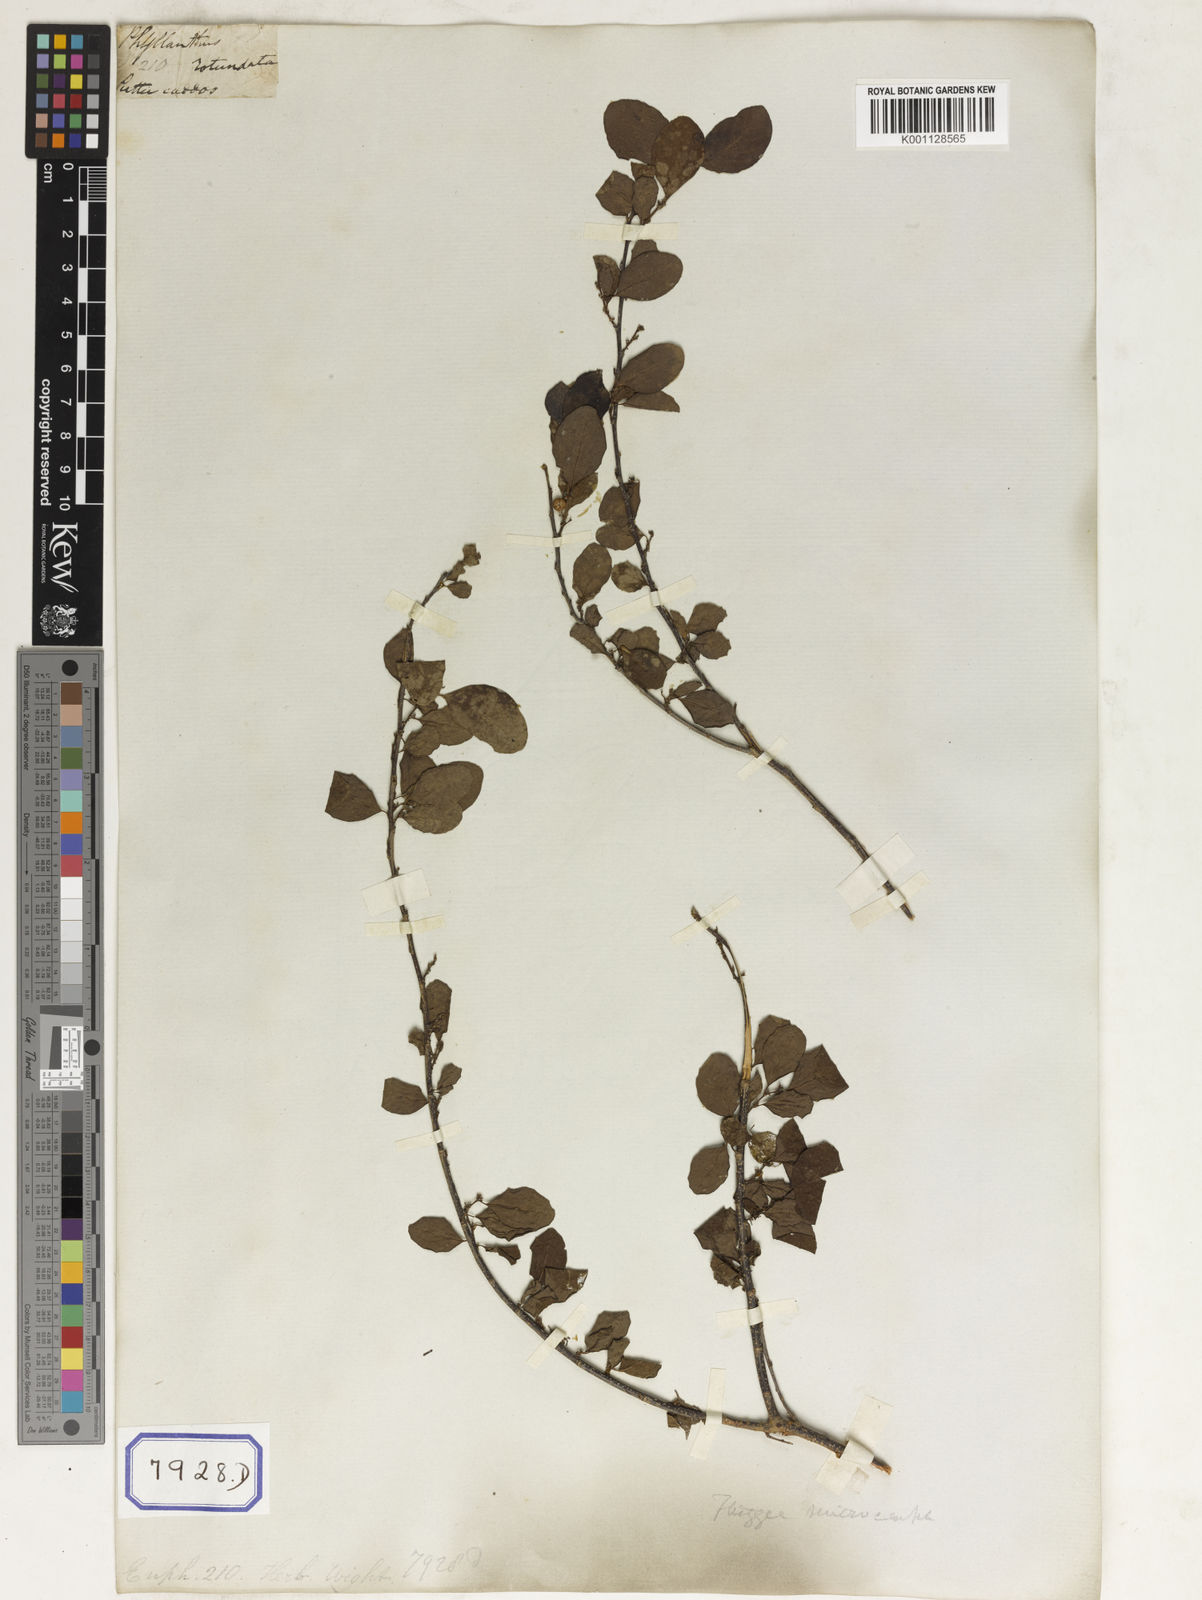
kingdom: Plantae
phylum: Tracheophyta
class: Magnoliopsida
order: Malpighiales
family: Euphorbiaceae
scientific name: Euphorbiaceae
